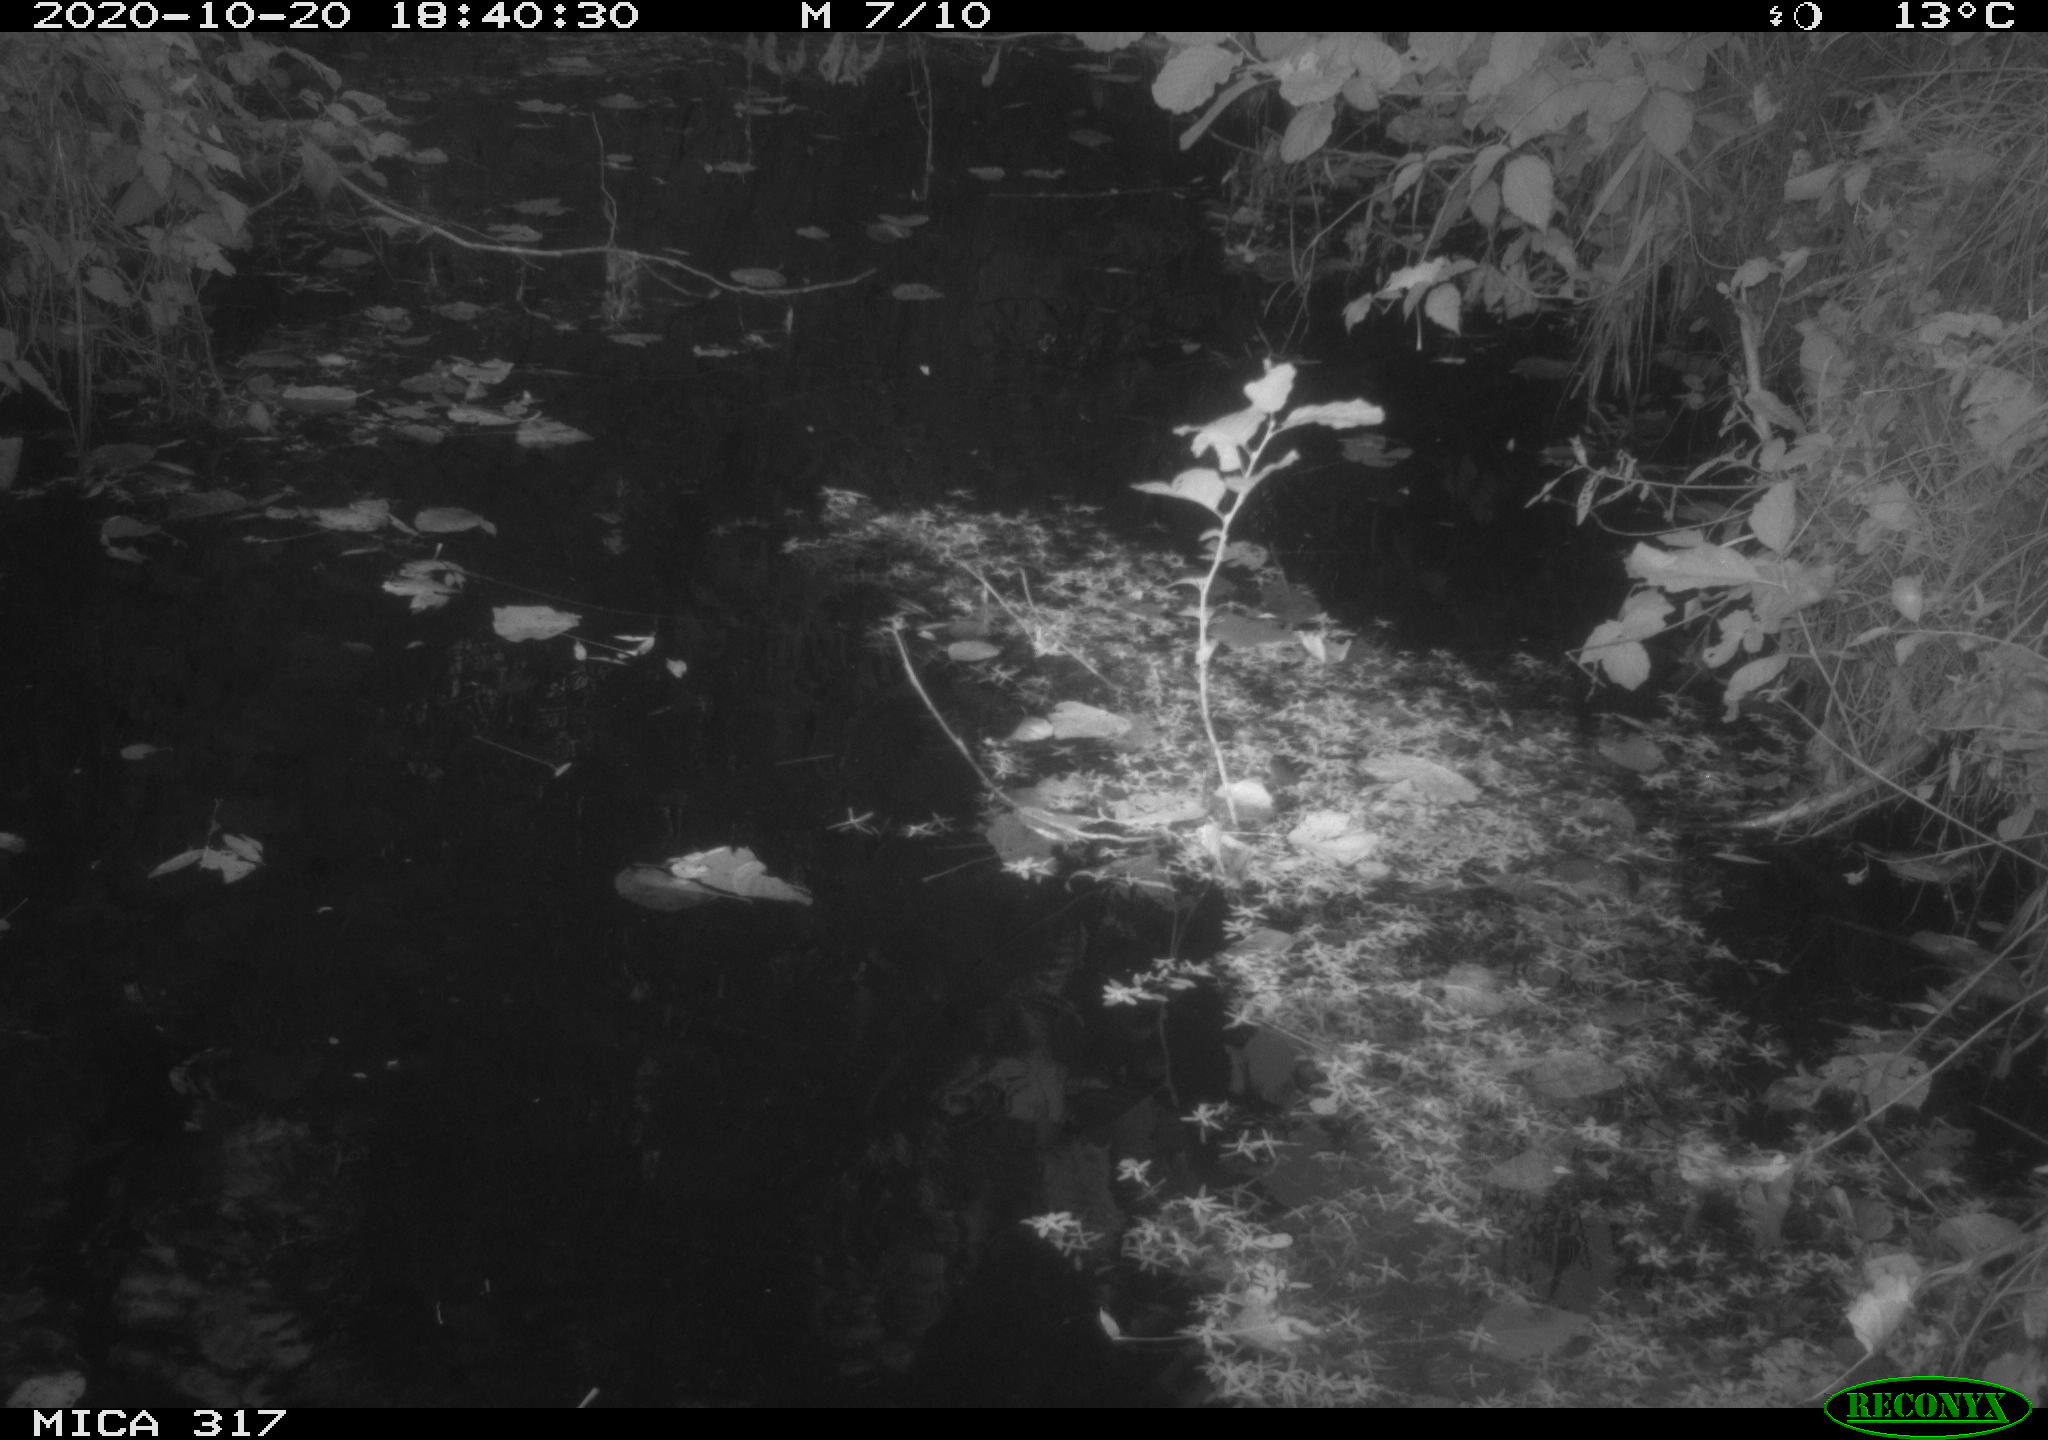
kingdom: Animalia
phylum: Chordata
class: Aves
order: Gruiformes
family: Rallidae
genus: Gallinula
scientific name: Gallinula chloropus
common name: Common moorhen
